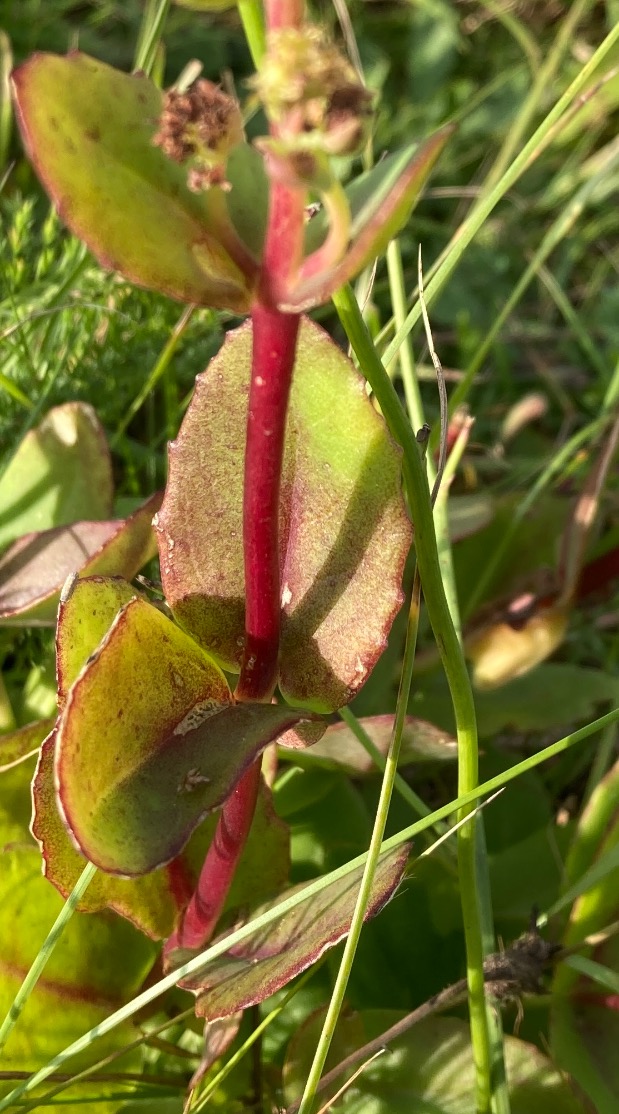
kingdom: Plantae
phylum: Tracheophyta
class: Magnoliopsida
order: Saxifragales
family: Crassulaceae
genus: Hylotelephium
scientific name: Hylotelephium telephium
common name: Sankthansurt
